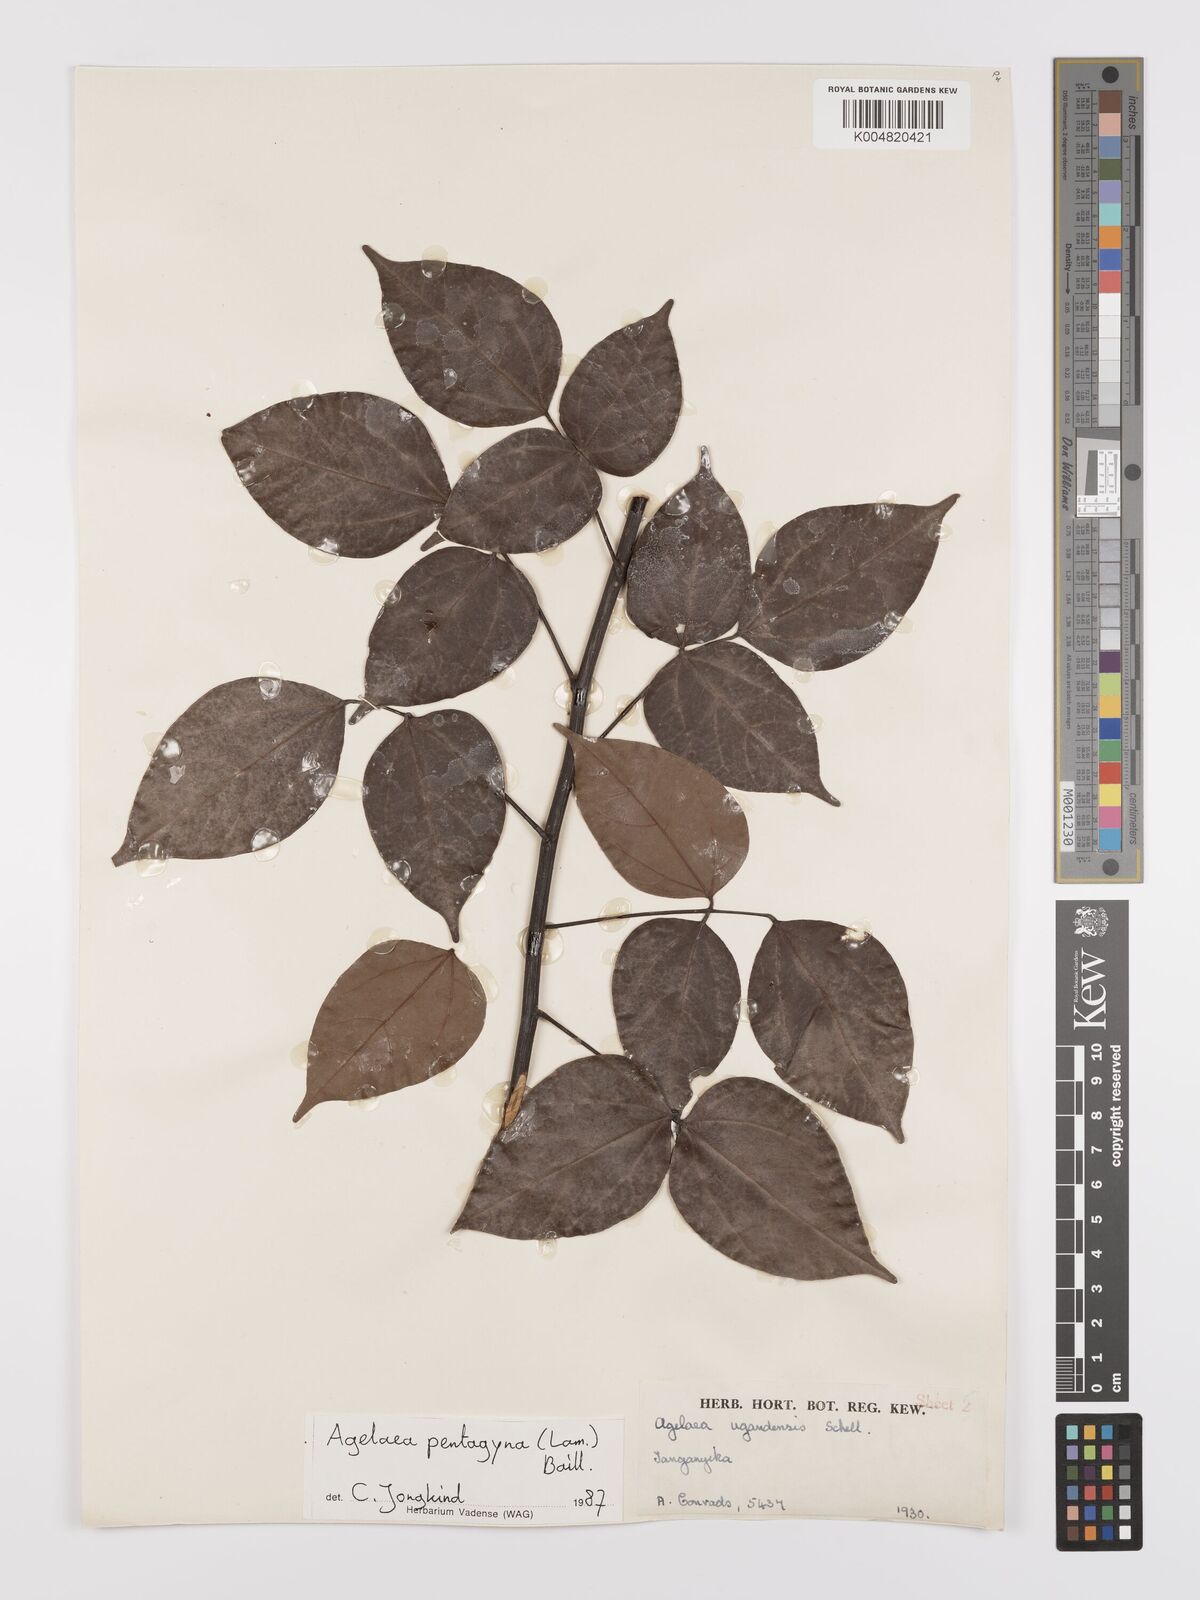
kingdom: Plantae
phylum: Tracheophyta
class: Magnoliopsida
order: Oxalidales
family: Connaraceae
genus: Agelaea
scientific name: Agelaea pentagyna
